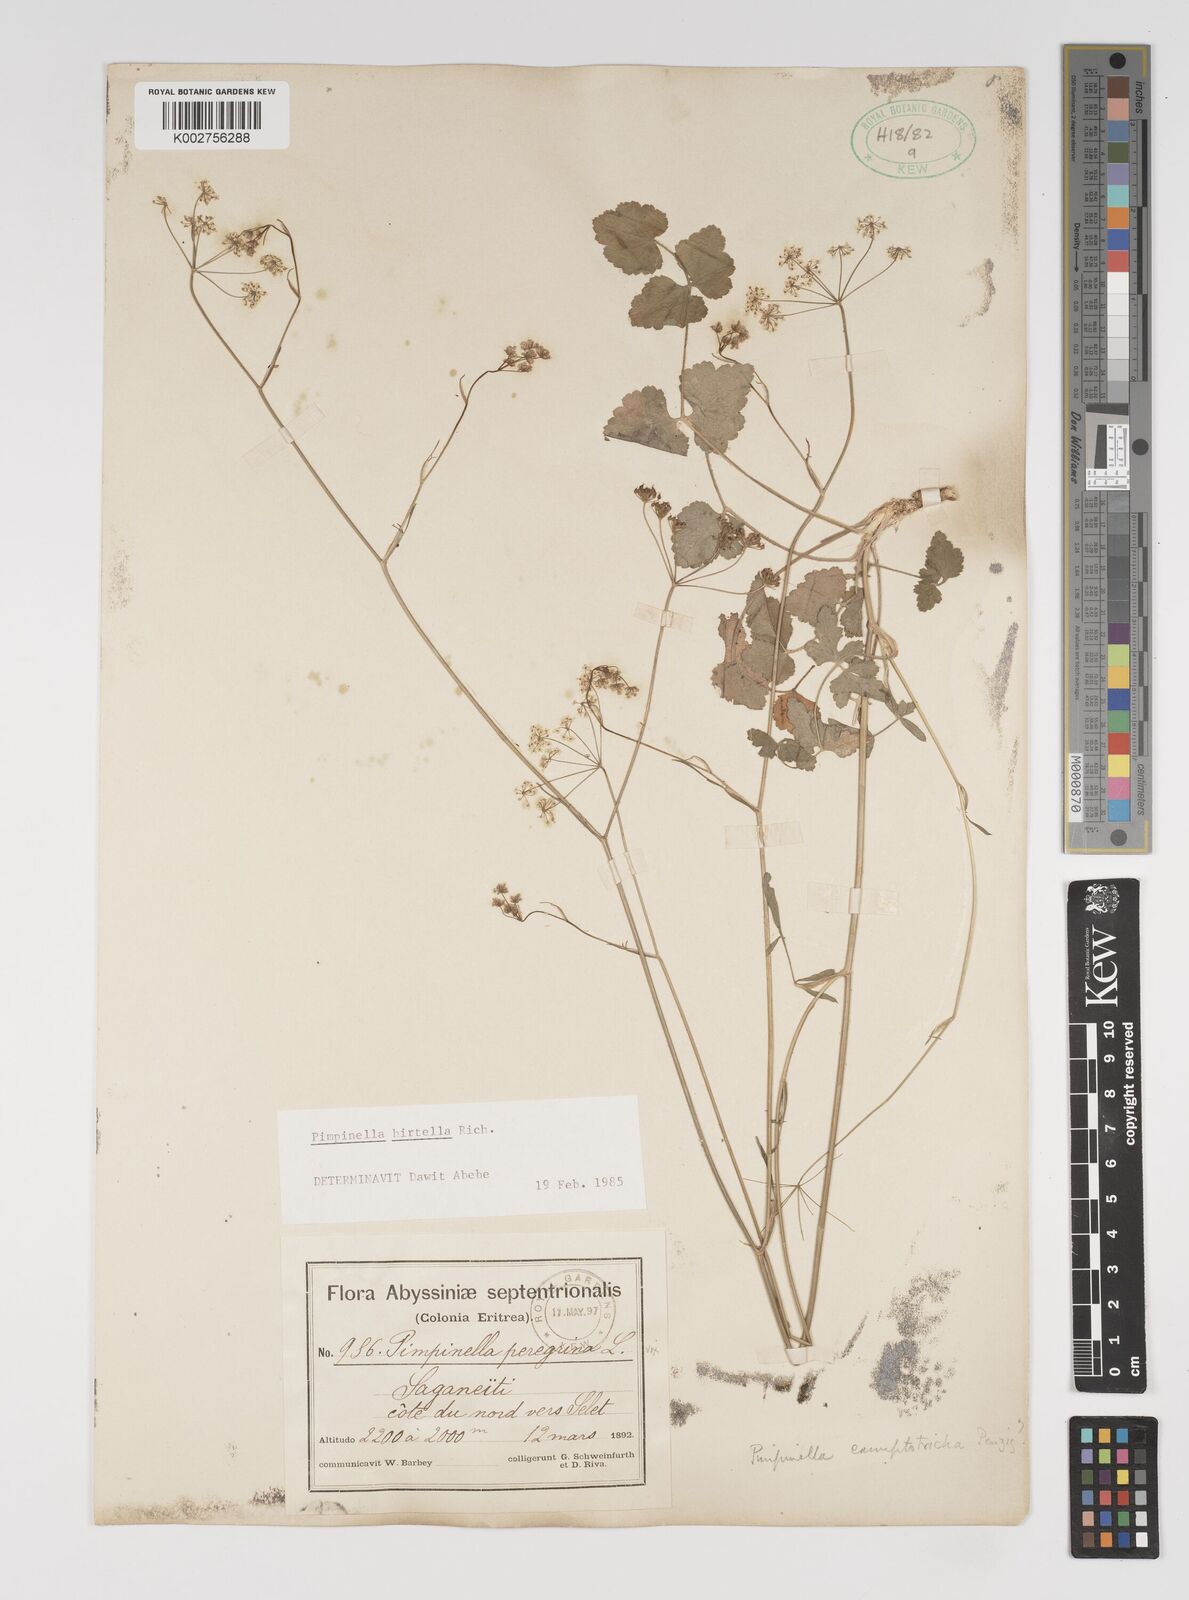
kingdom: Plantae
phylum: Tracheophyta
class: Magnoliopsida
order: Apiales
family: Apiaceae
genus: Pimpinella
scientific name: Pimpinella hirtella
